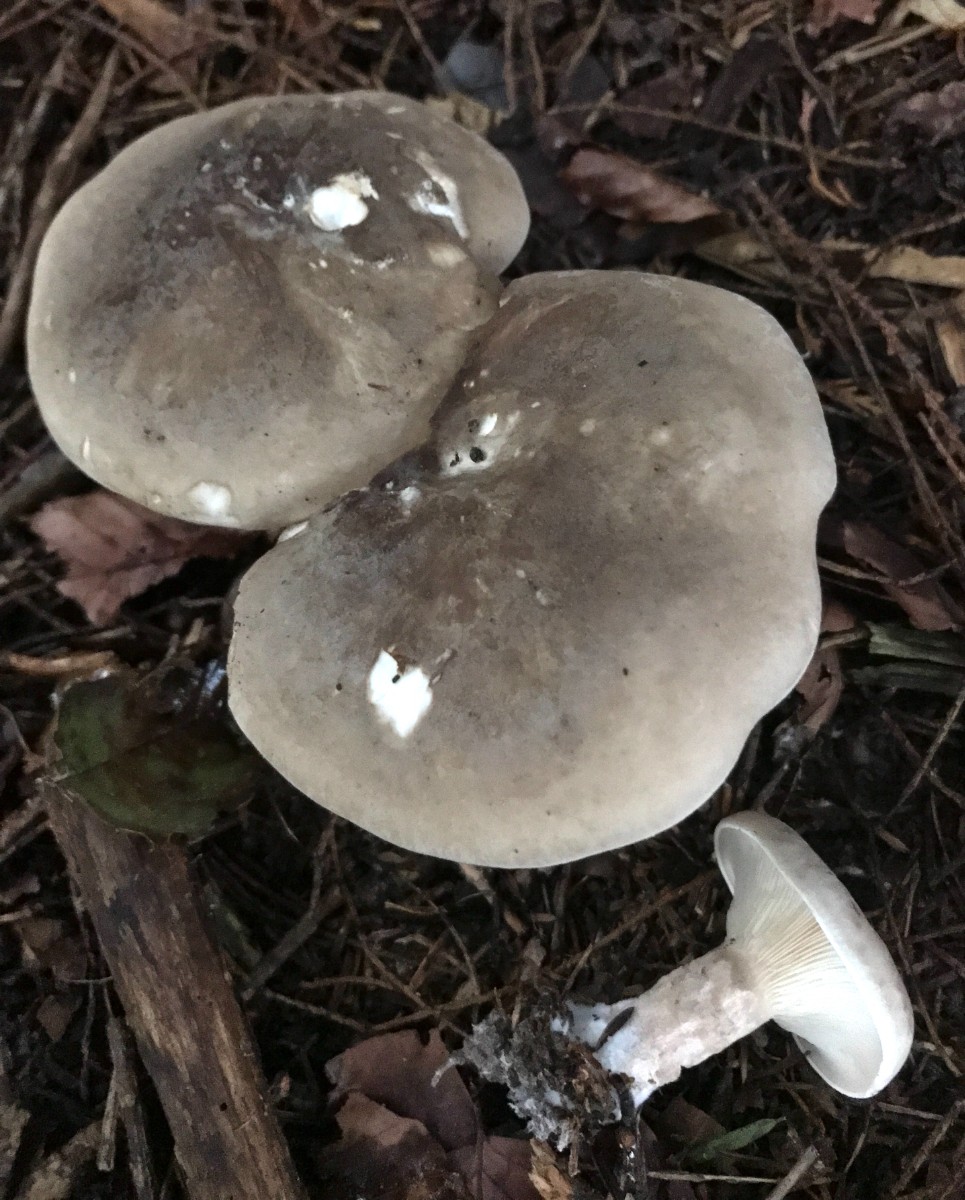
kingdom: Fungi
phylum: Basidiomycota
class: Agaricomycetes
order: Agaricales
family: Tricholomataceae
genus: Clitocybe
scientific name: Clitocybe nebularis
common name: tåge-tragthat
